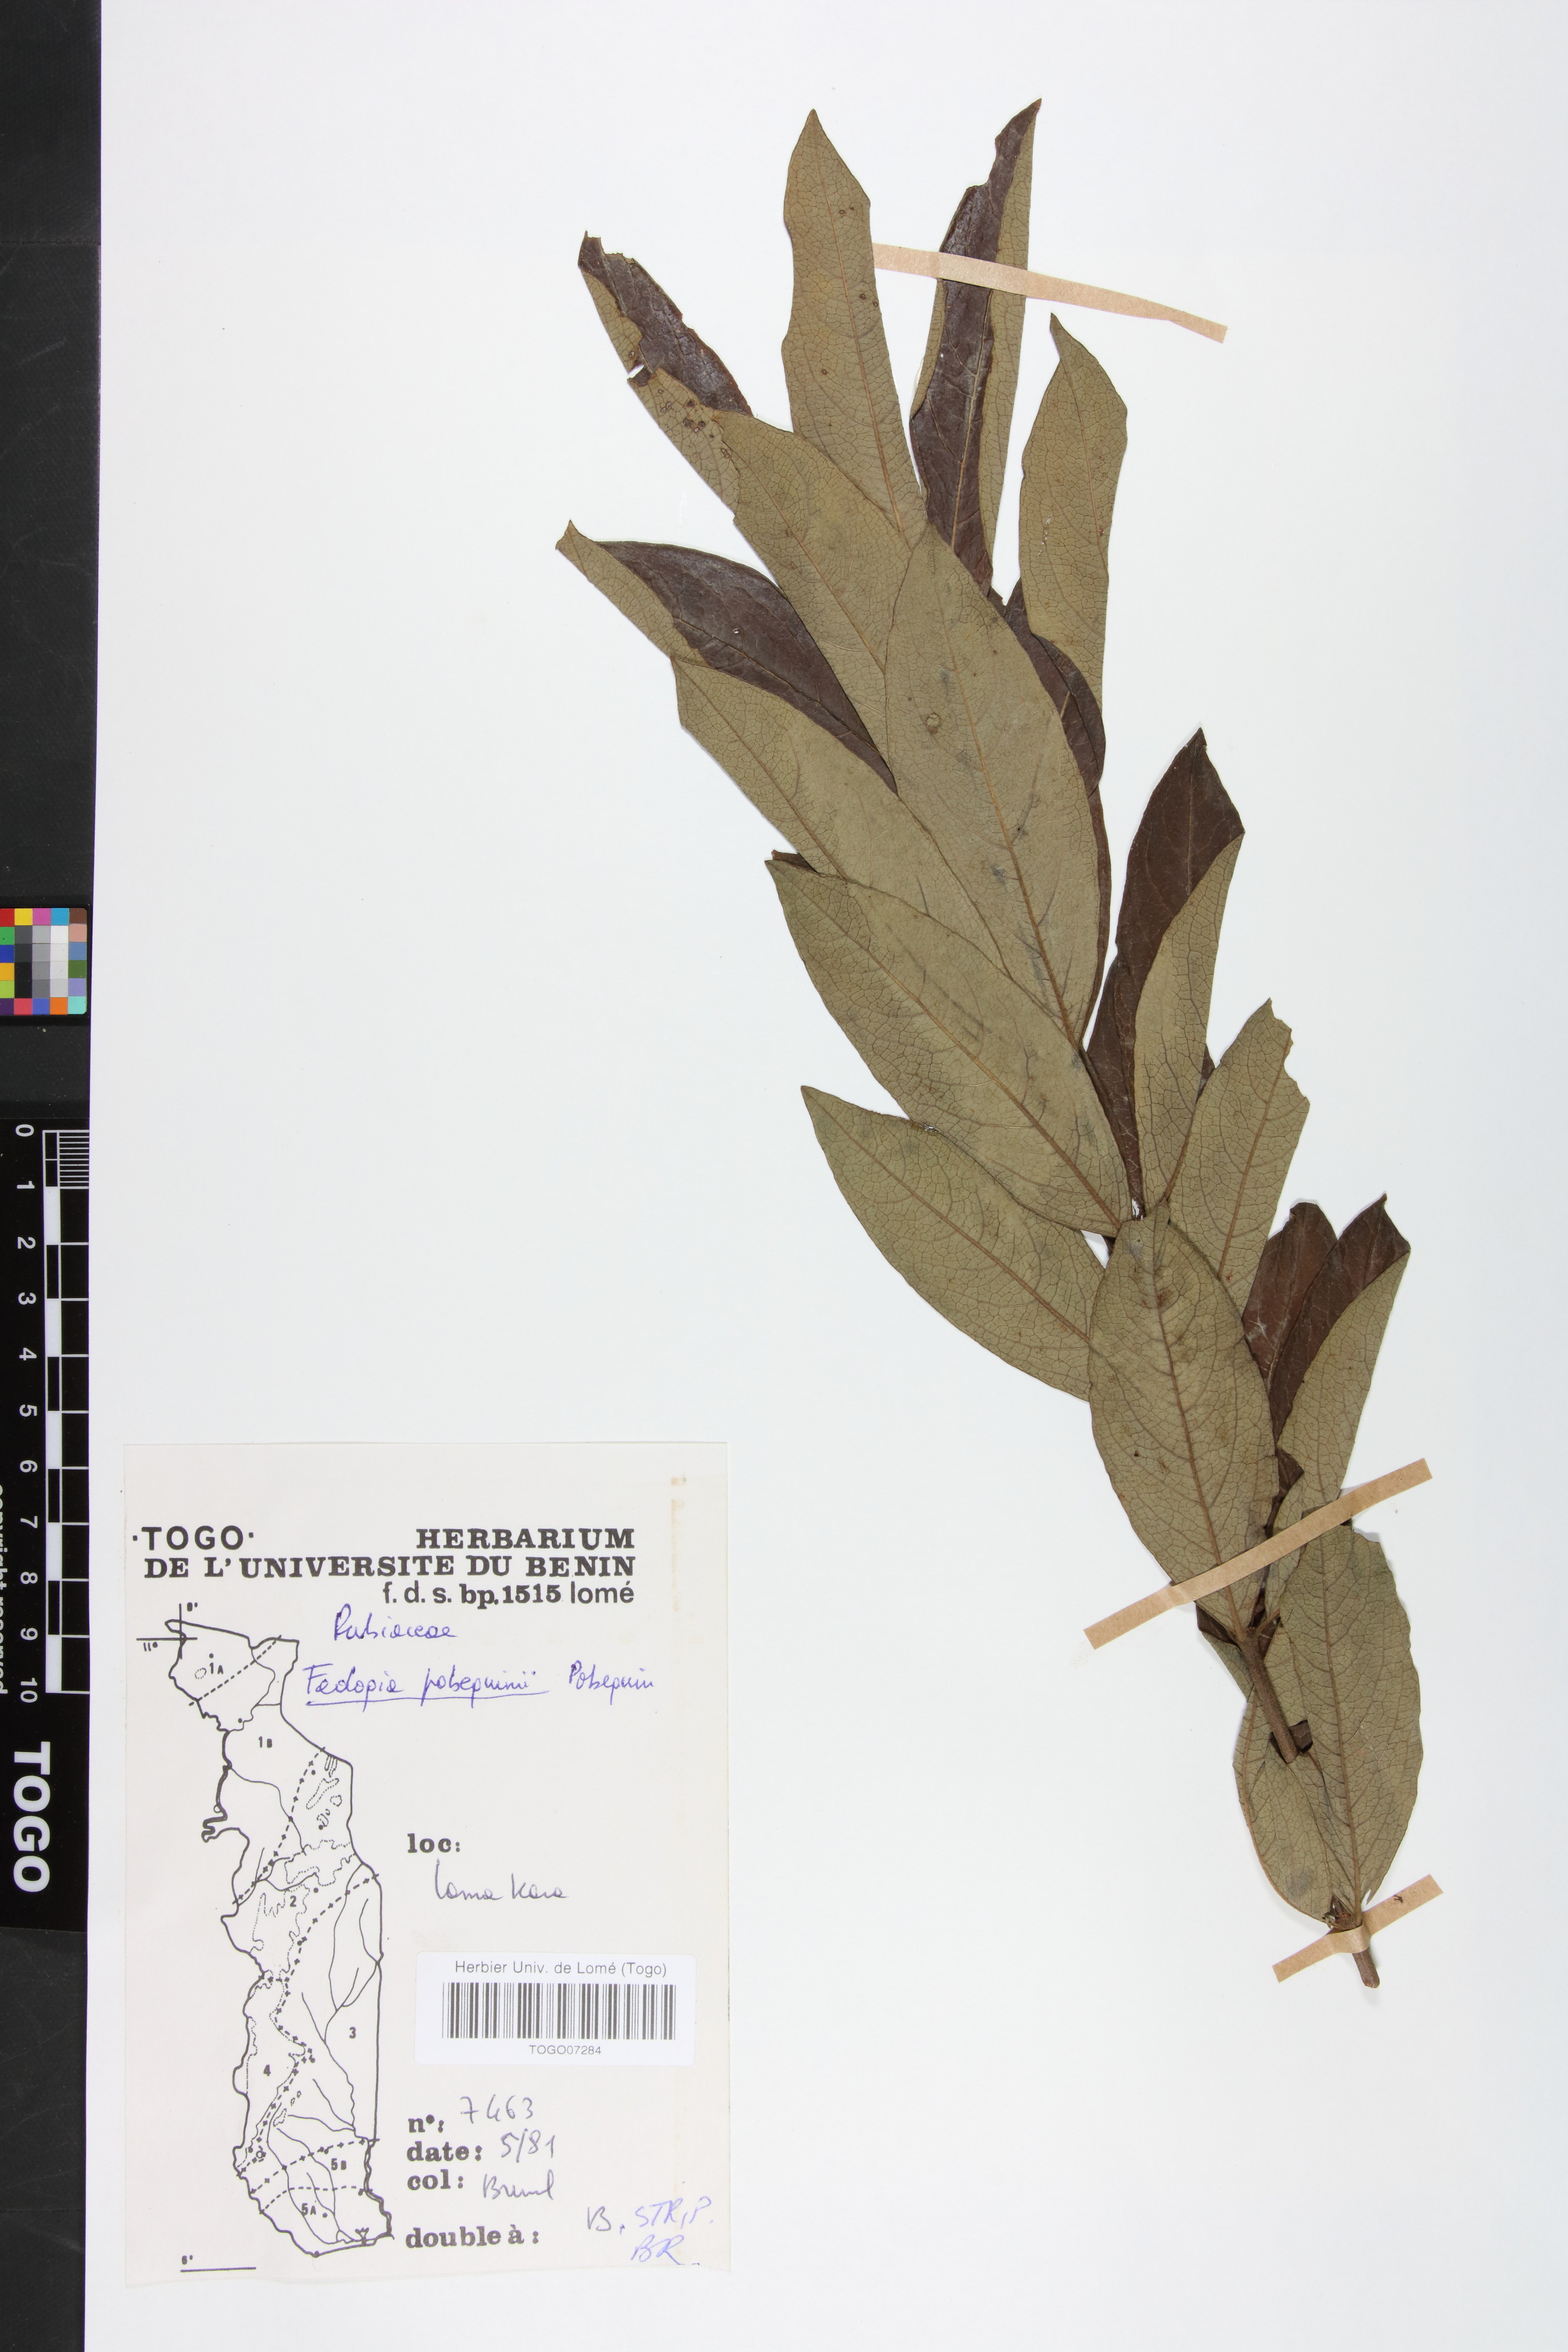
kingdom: Plantae
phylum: Tracheophyta
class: Magnoliopsida
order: Gentianales
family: Rubiaceae
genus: Fadogia
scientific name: Fadogia pobeguinii
